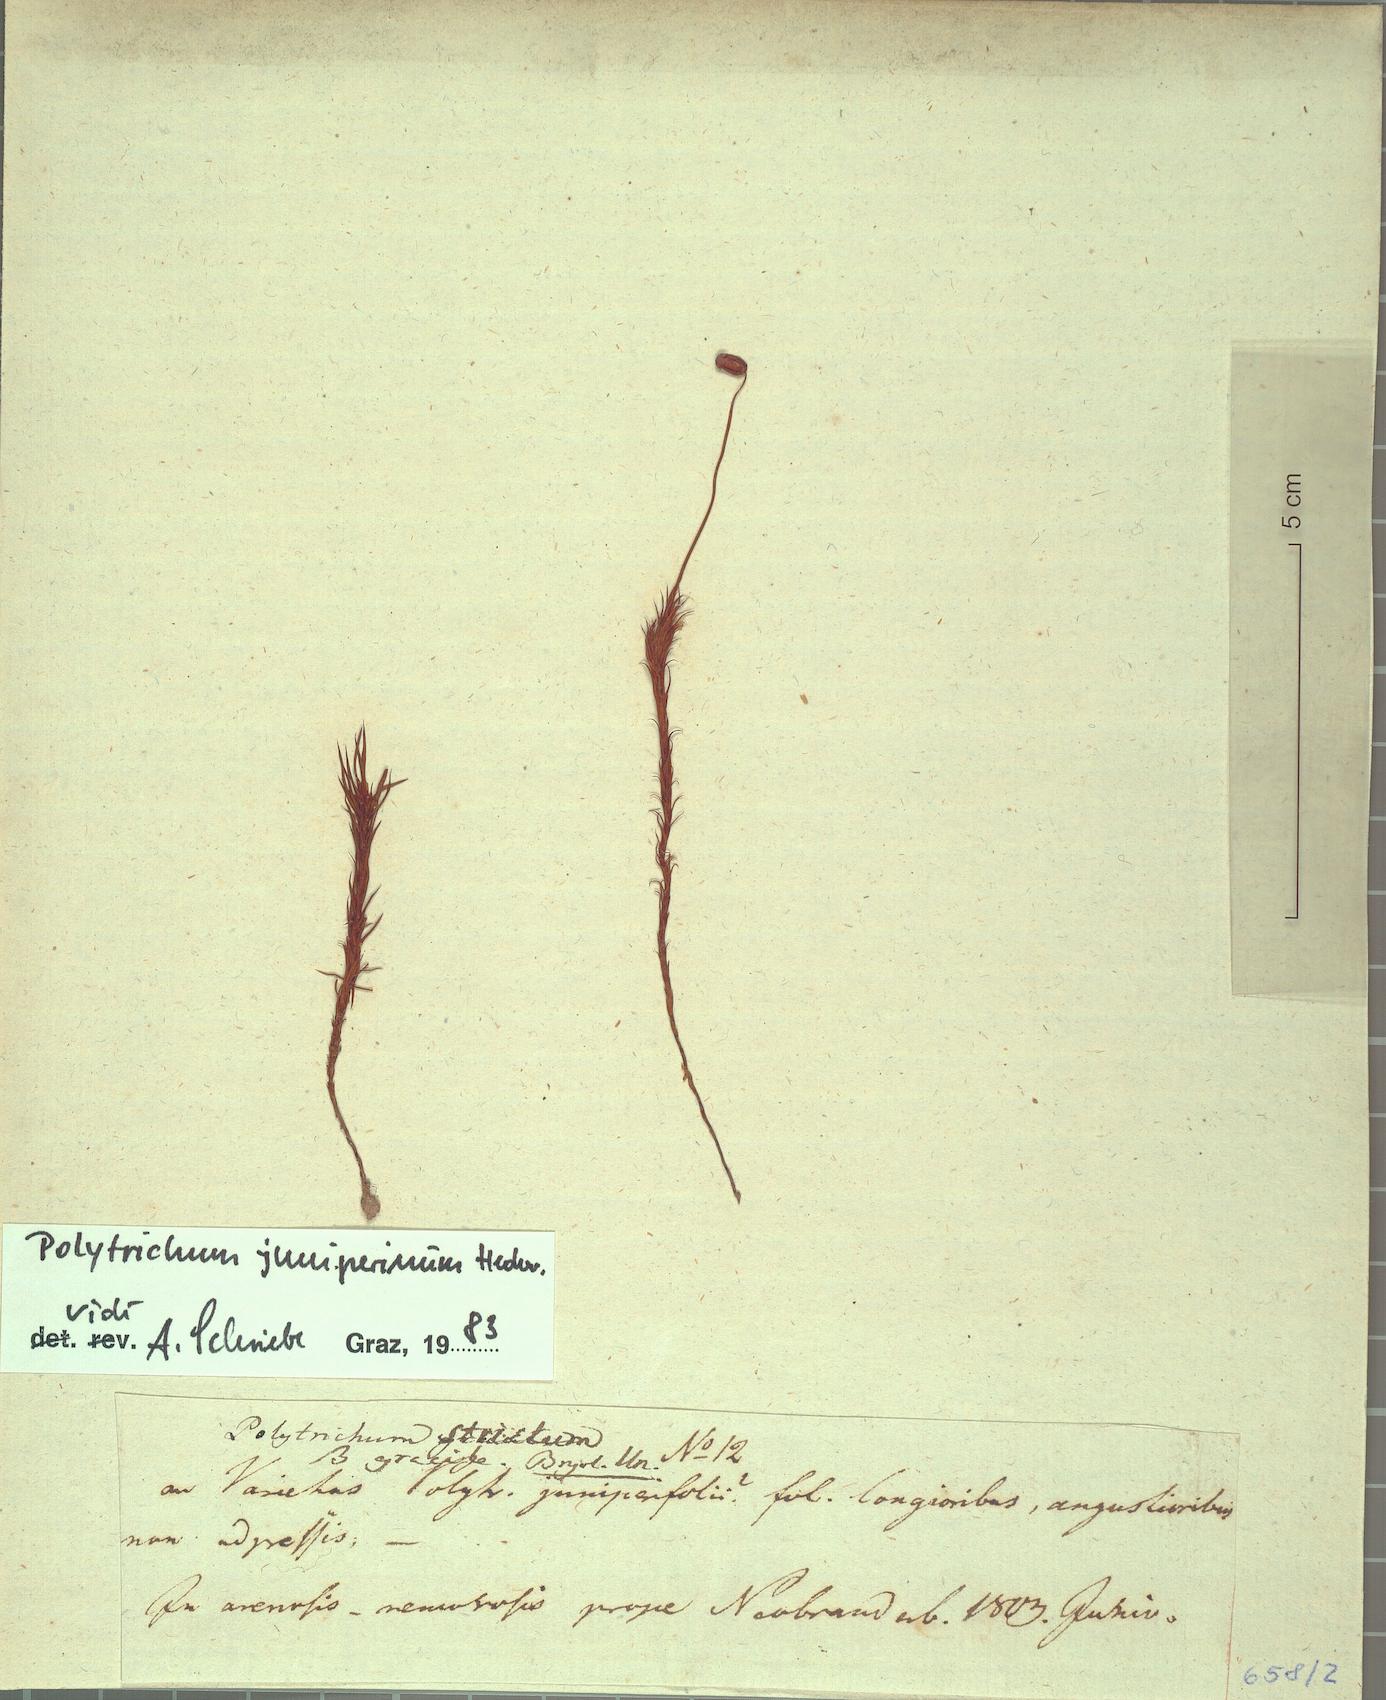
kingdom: Plantae
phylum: Bryophyta
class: Polytrichopsida
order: Polytrichales
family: Polytrichaceae
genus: Polytrichum
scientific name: Polytrichum juniperinum
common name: Juniper haircap moss
